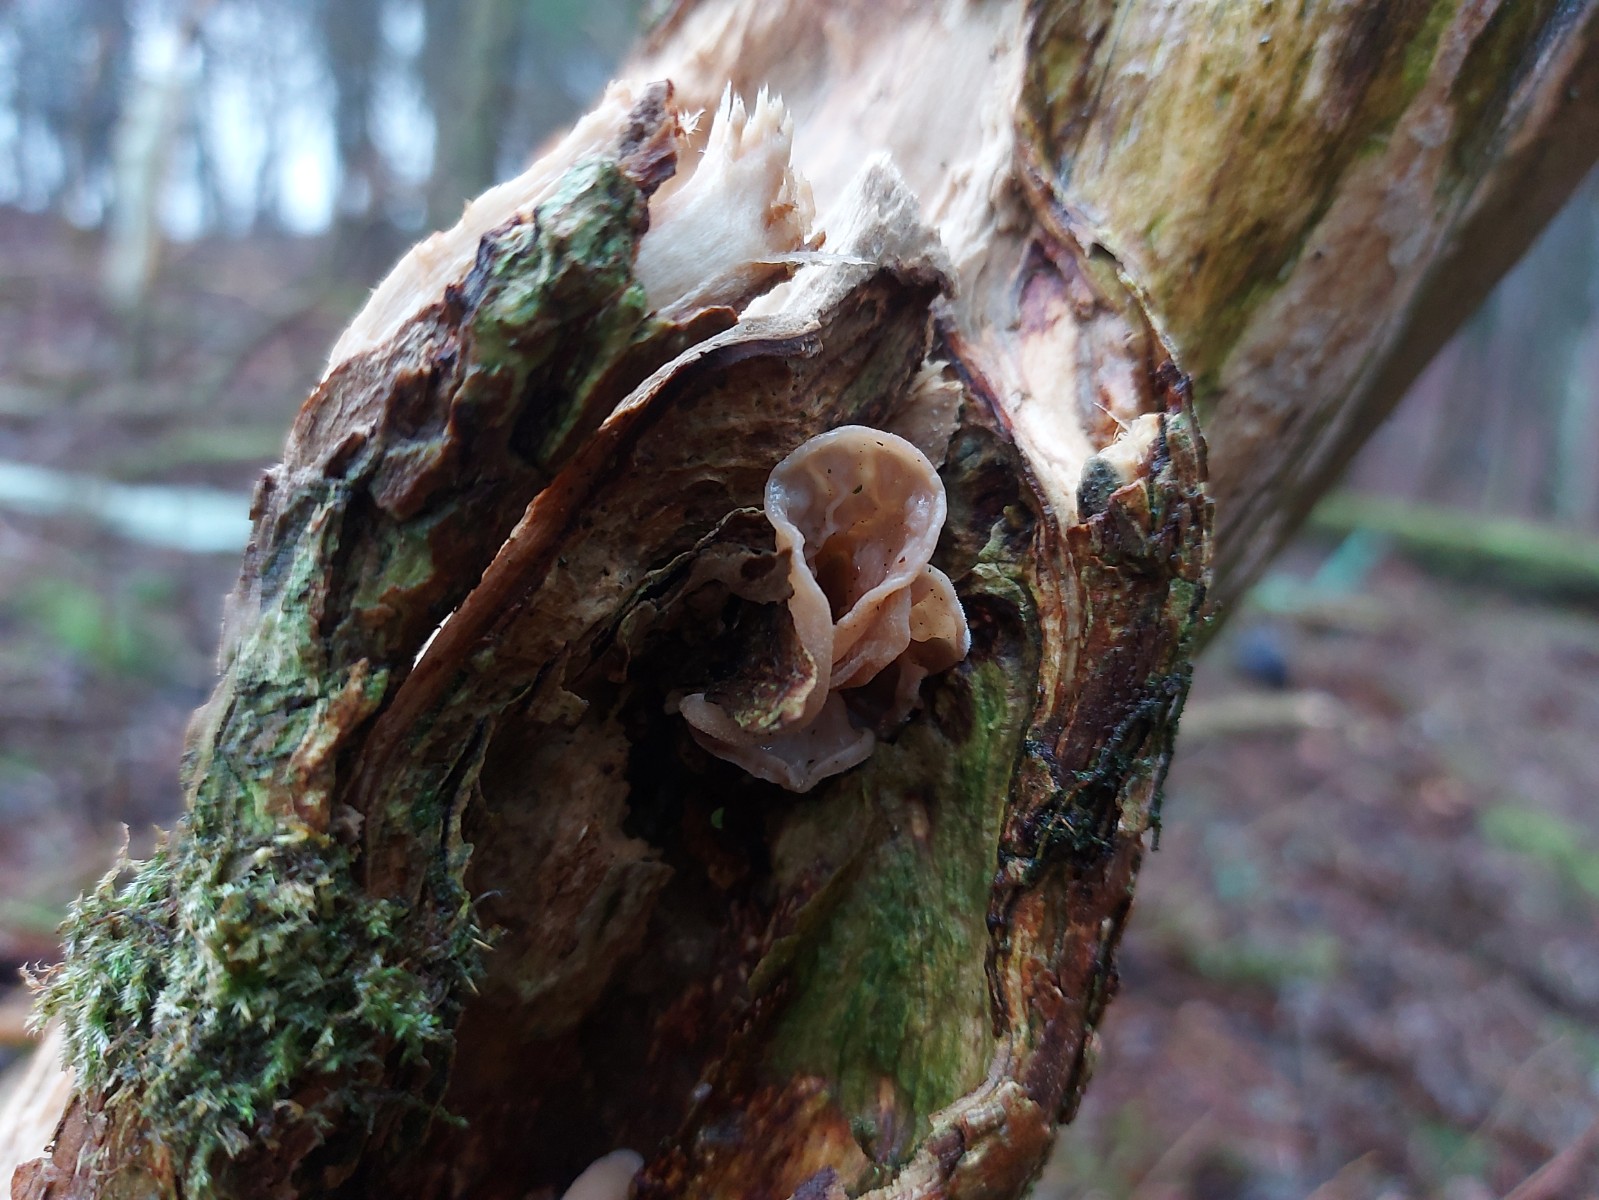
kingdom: Fungi
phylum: Basidiomycota
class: Agaricomycetes
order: Auriculariales
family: Auriculariaceae
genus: Auricularia
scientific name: Auricularia auricula-judae
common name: almindelig judasøre
